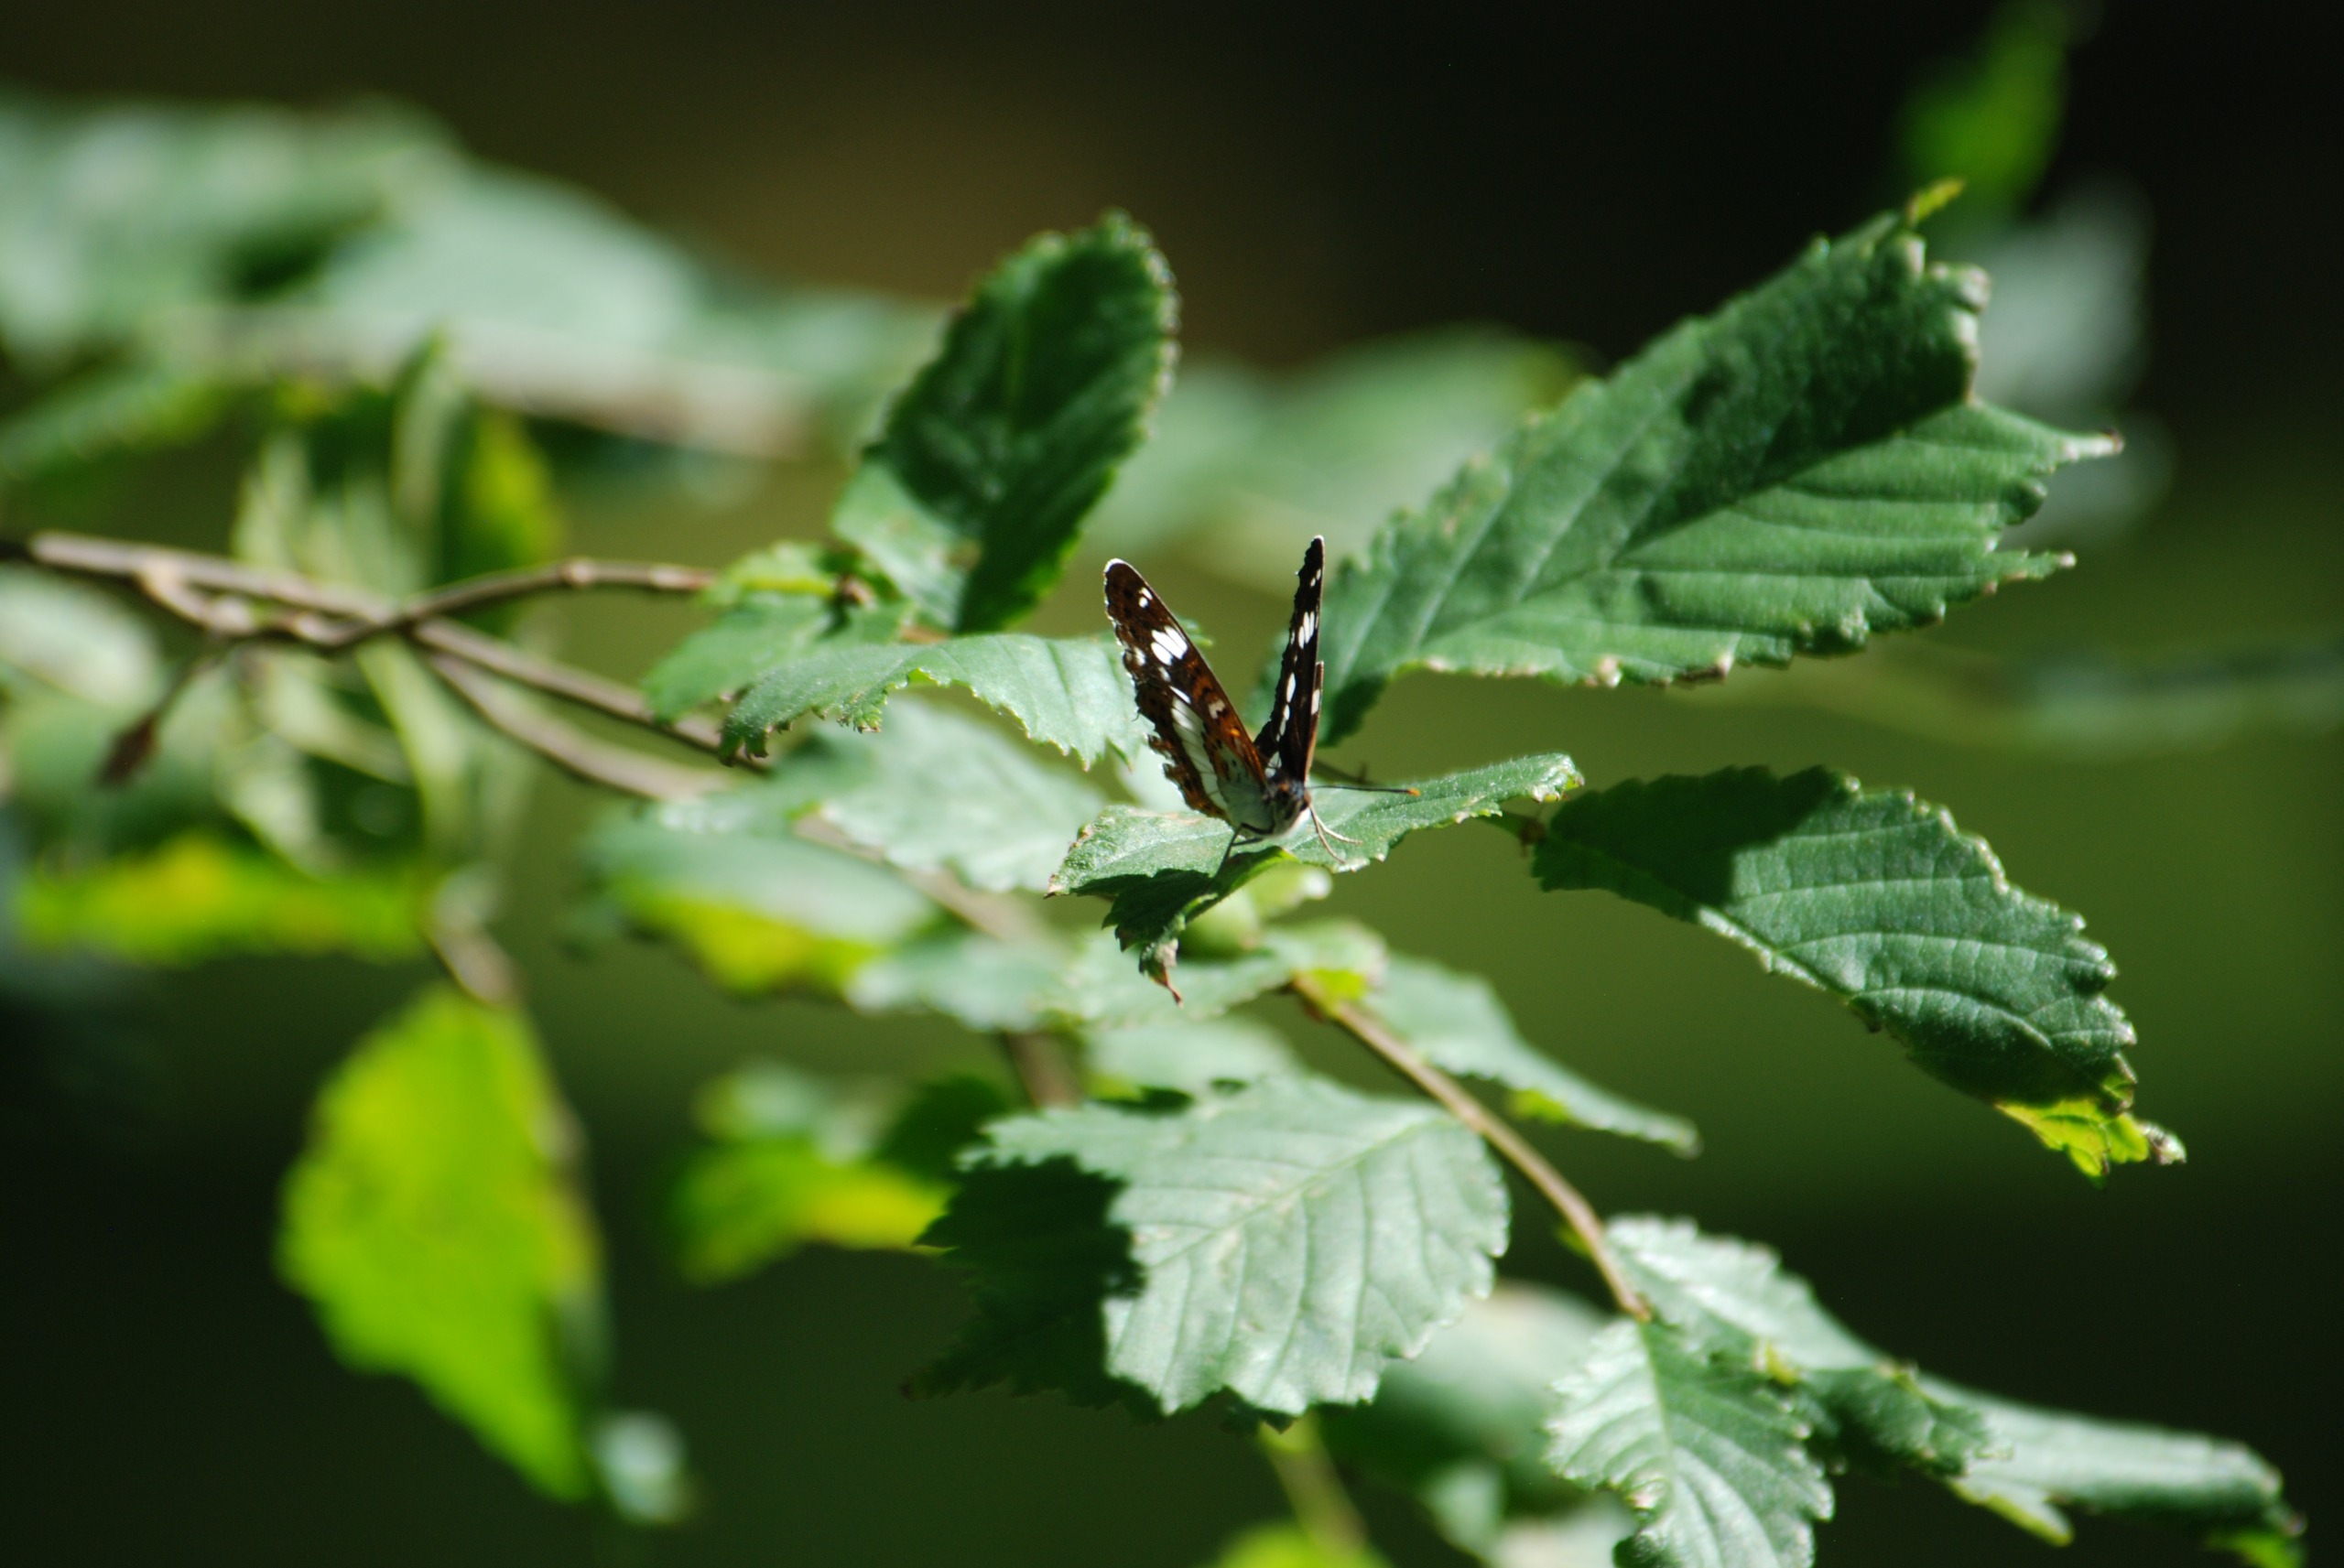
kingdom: Animalia
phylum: Arthropoda
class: Insecta
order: Lepidoptera
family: Nymphalidae
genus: Ladoga
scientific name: Ladoga camilla
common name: Hvid admiral
